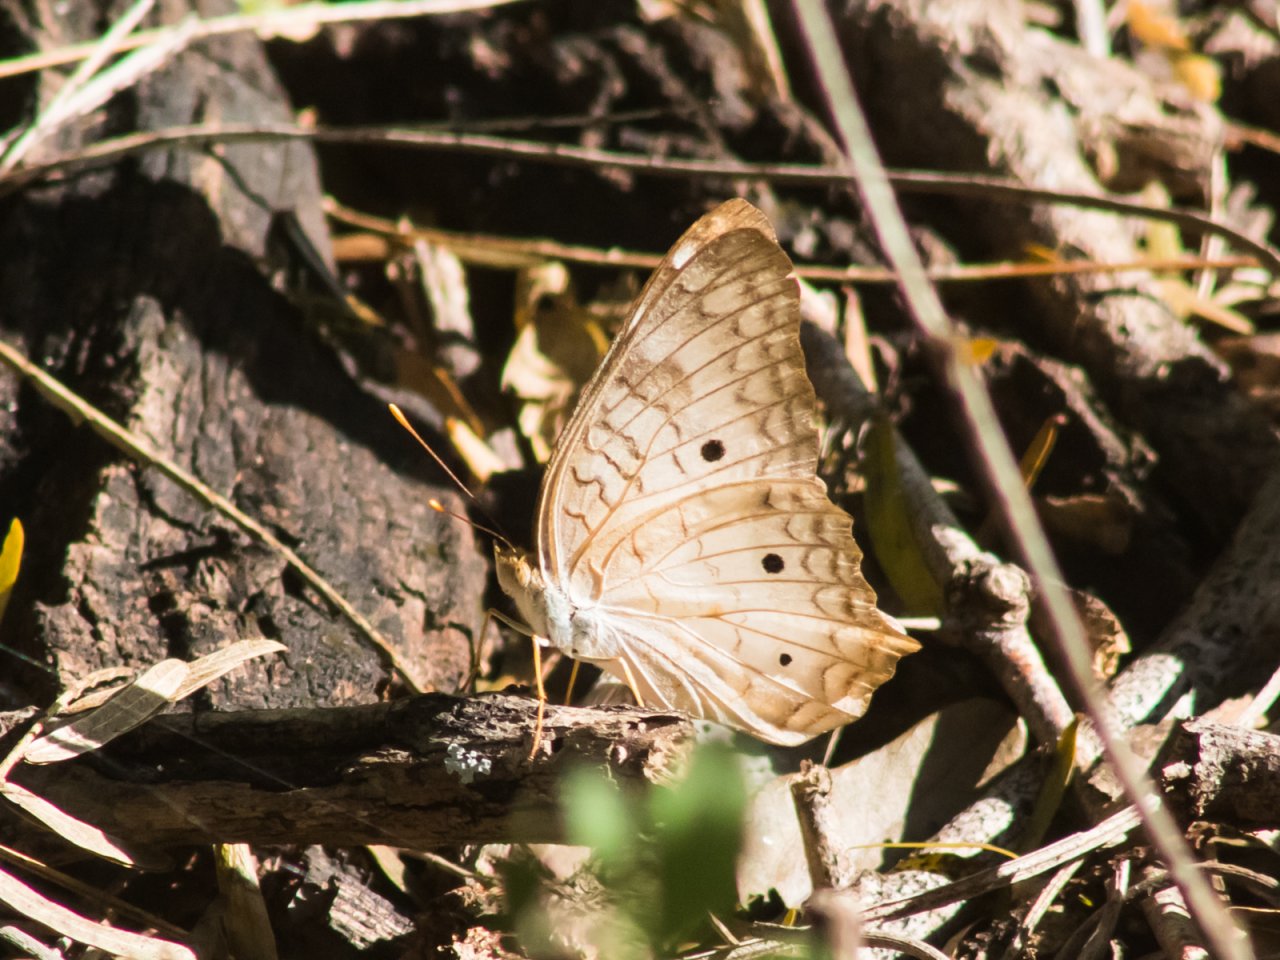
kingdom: Animalia
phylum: Arthropoda
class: Insecta
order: Lepidoptera
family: Nymphalidae
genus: Anartia
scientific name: Anartia jatrophae
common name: White Peacock
